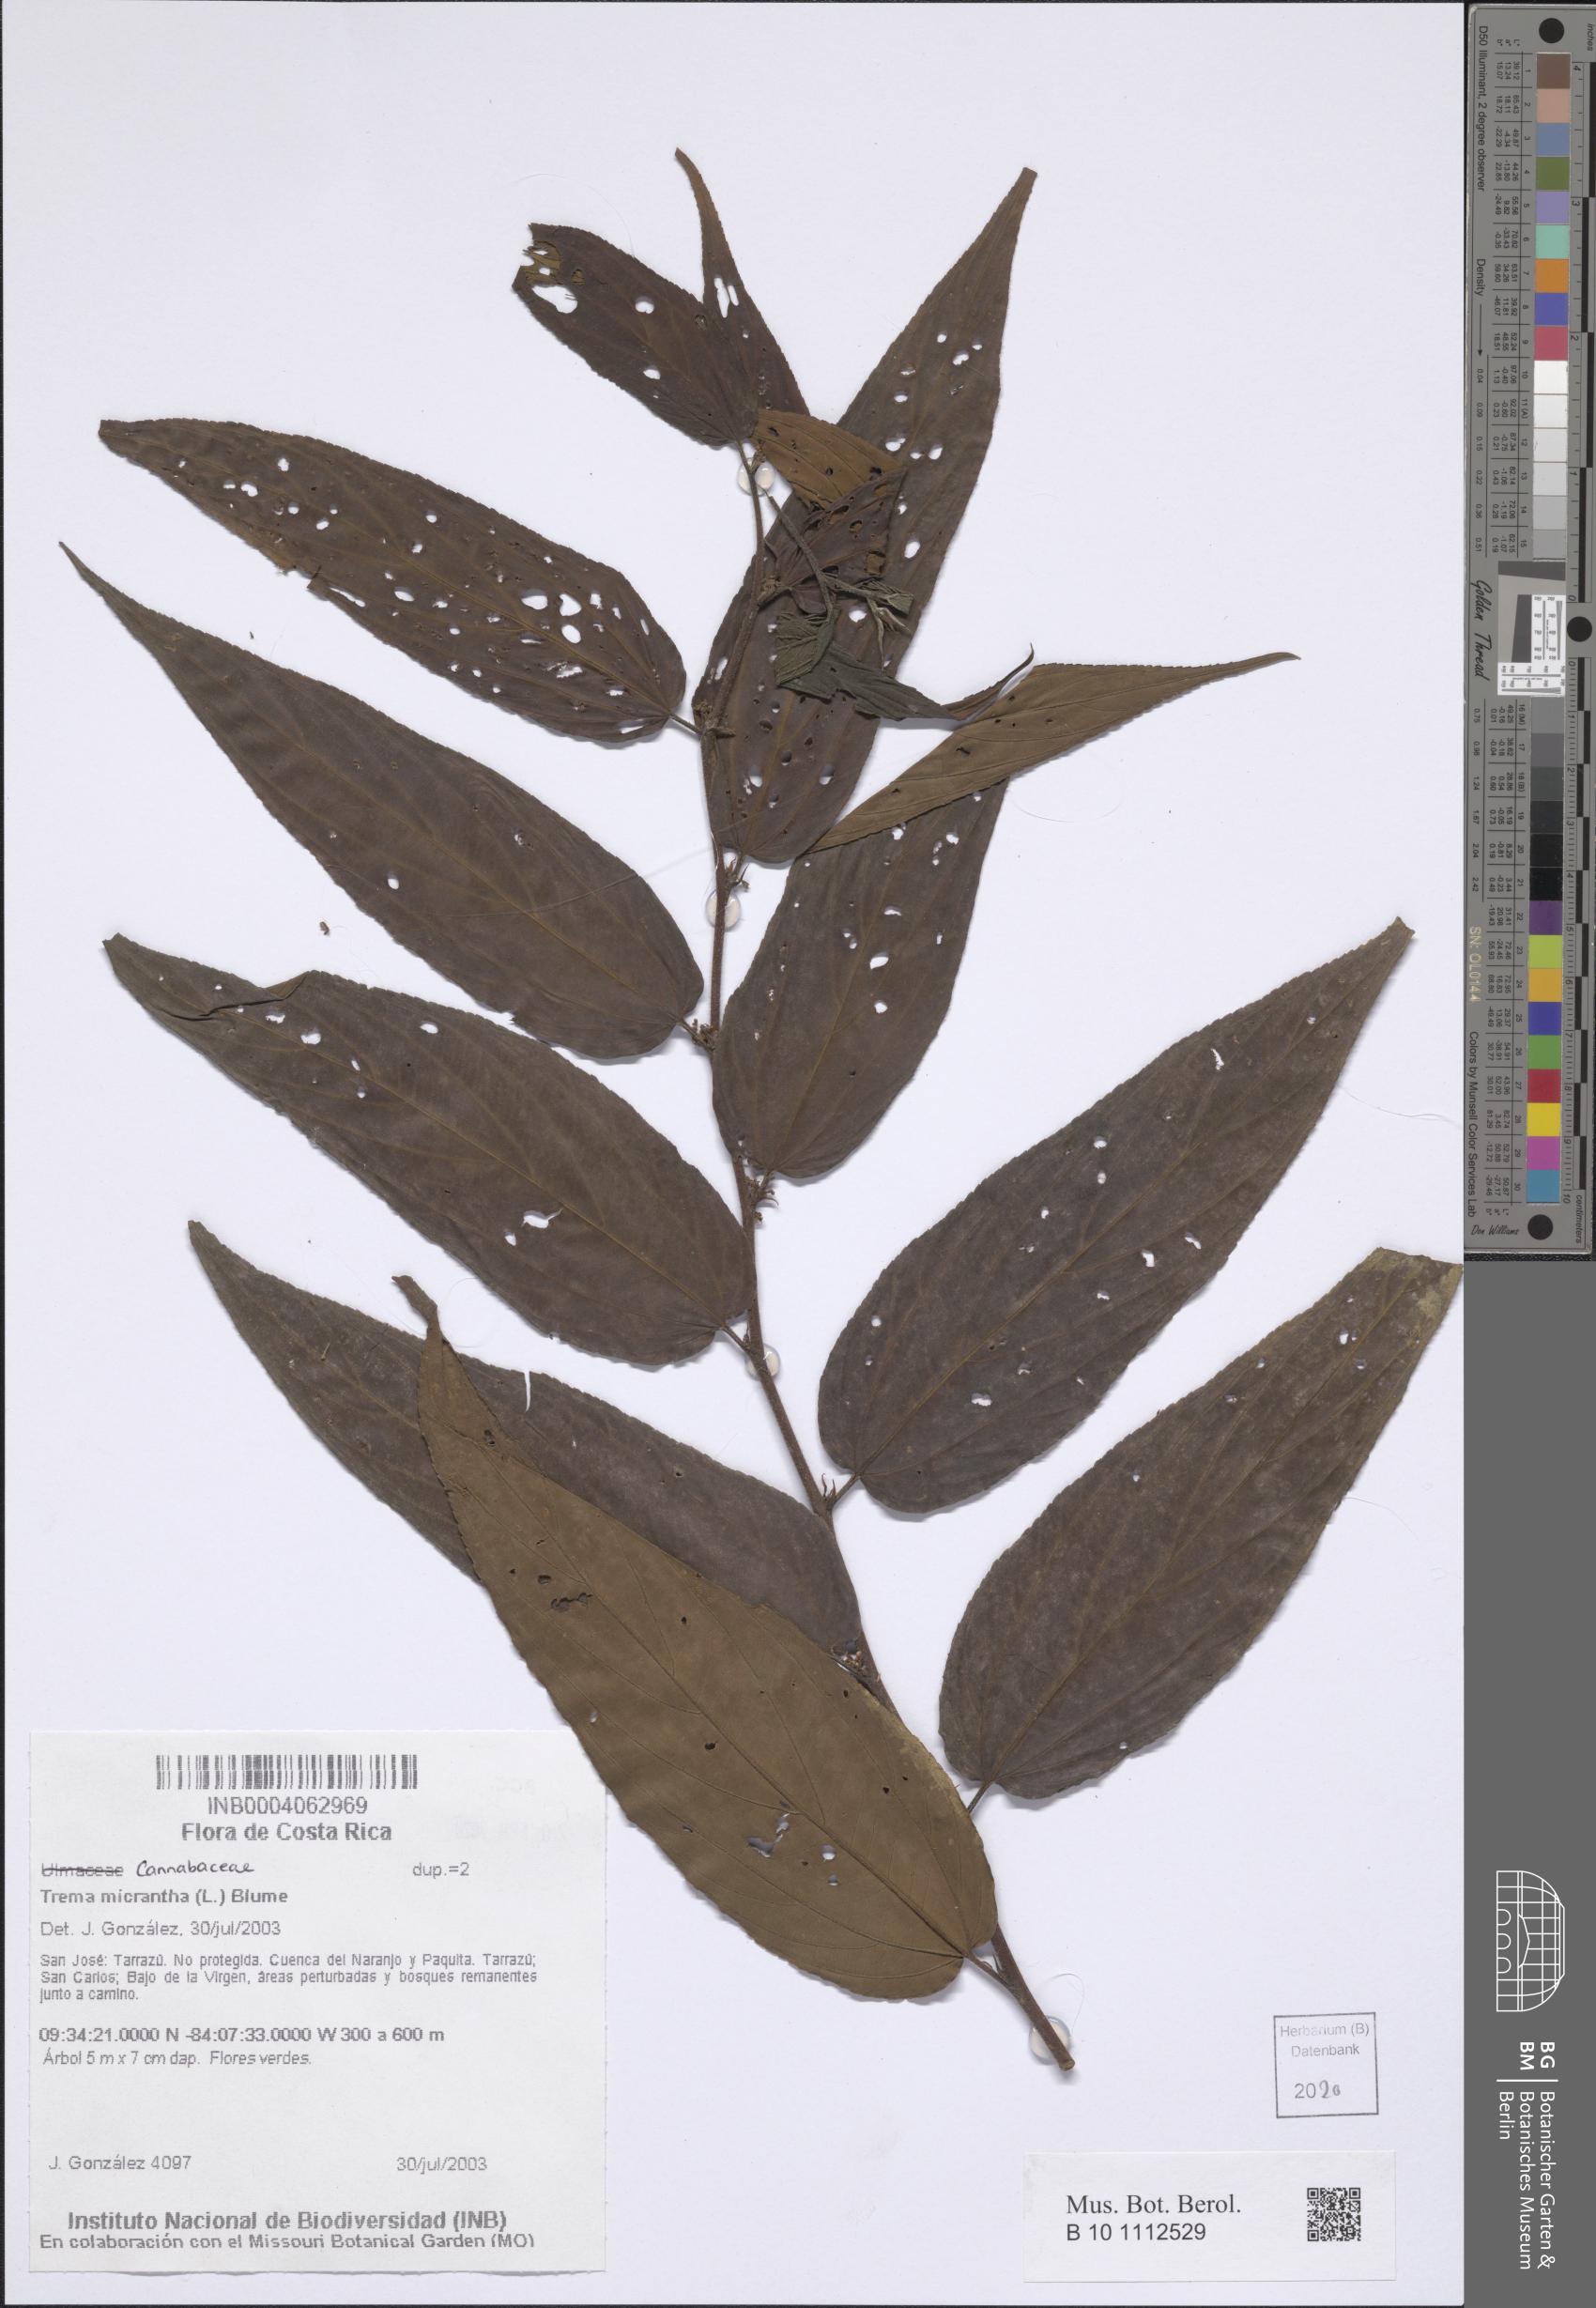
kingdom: Plantae
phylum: Tracheophyta
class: Magnoliopsida
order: Rosales
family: Cannabaceae
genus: Trema
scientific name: Trema micranthum
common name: Jamaican nettletree
